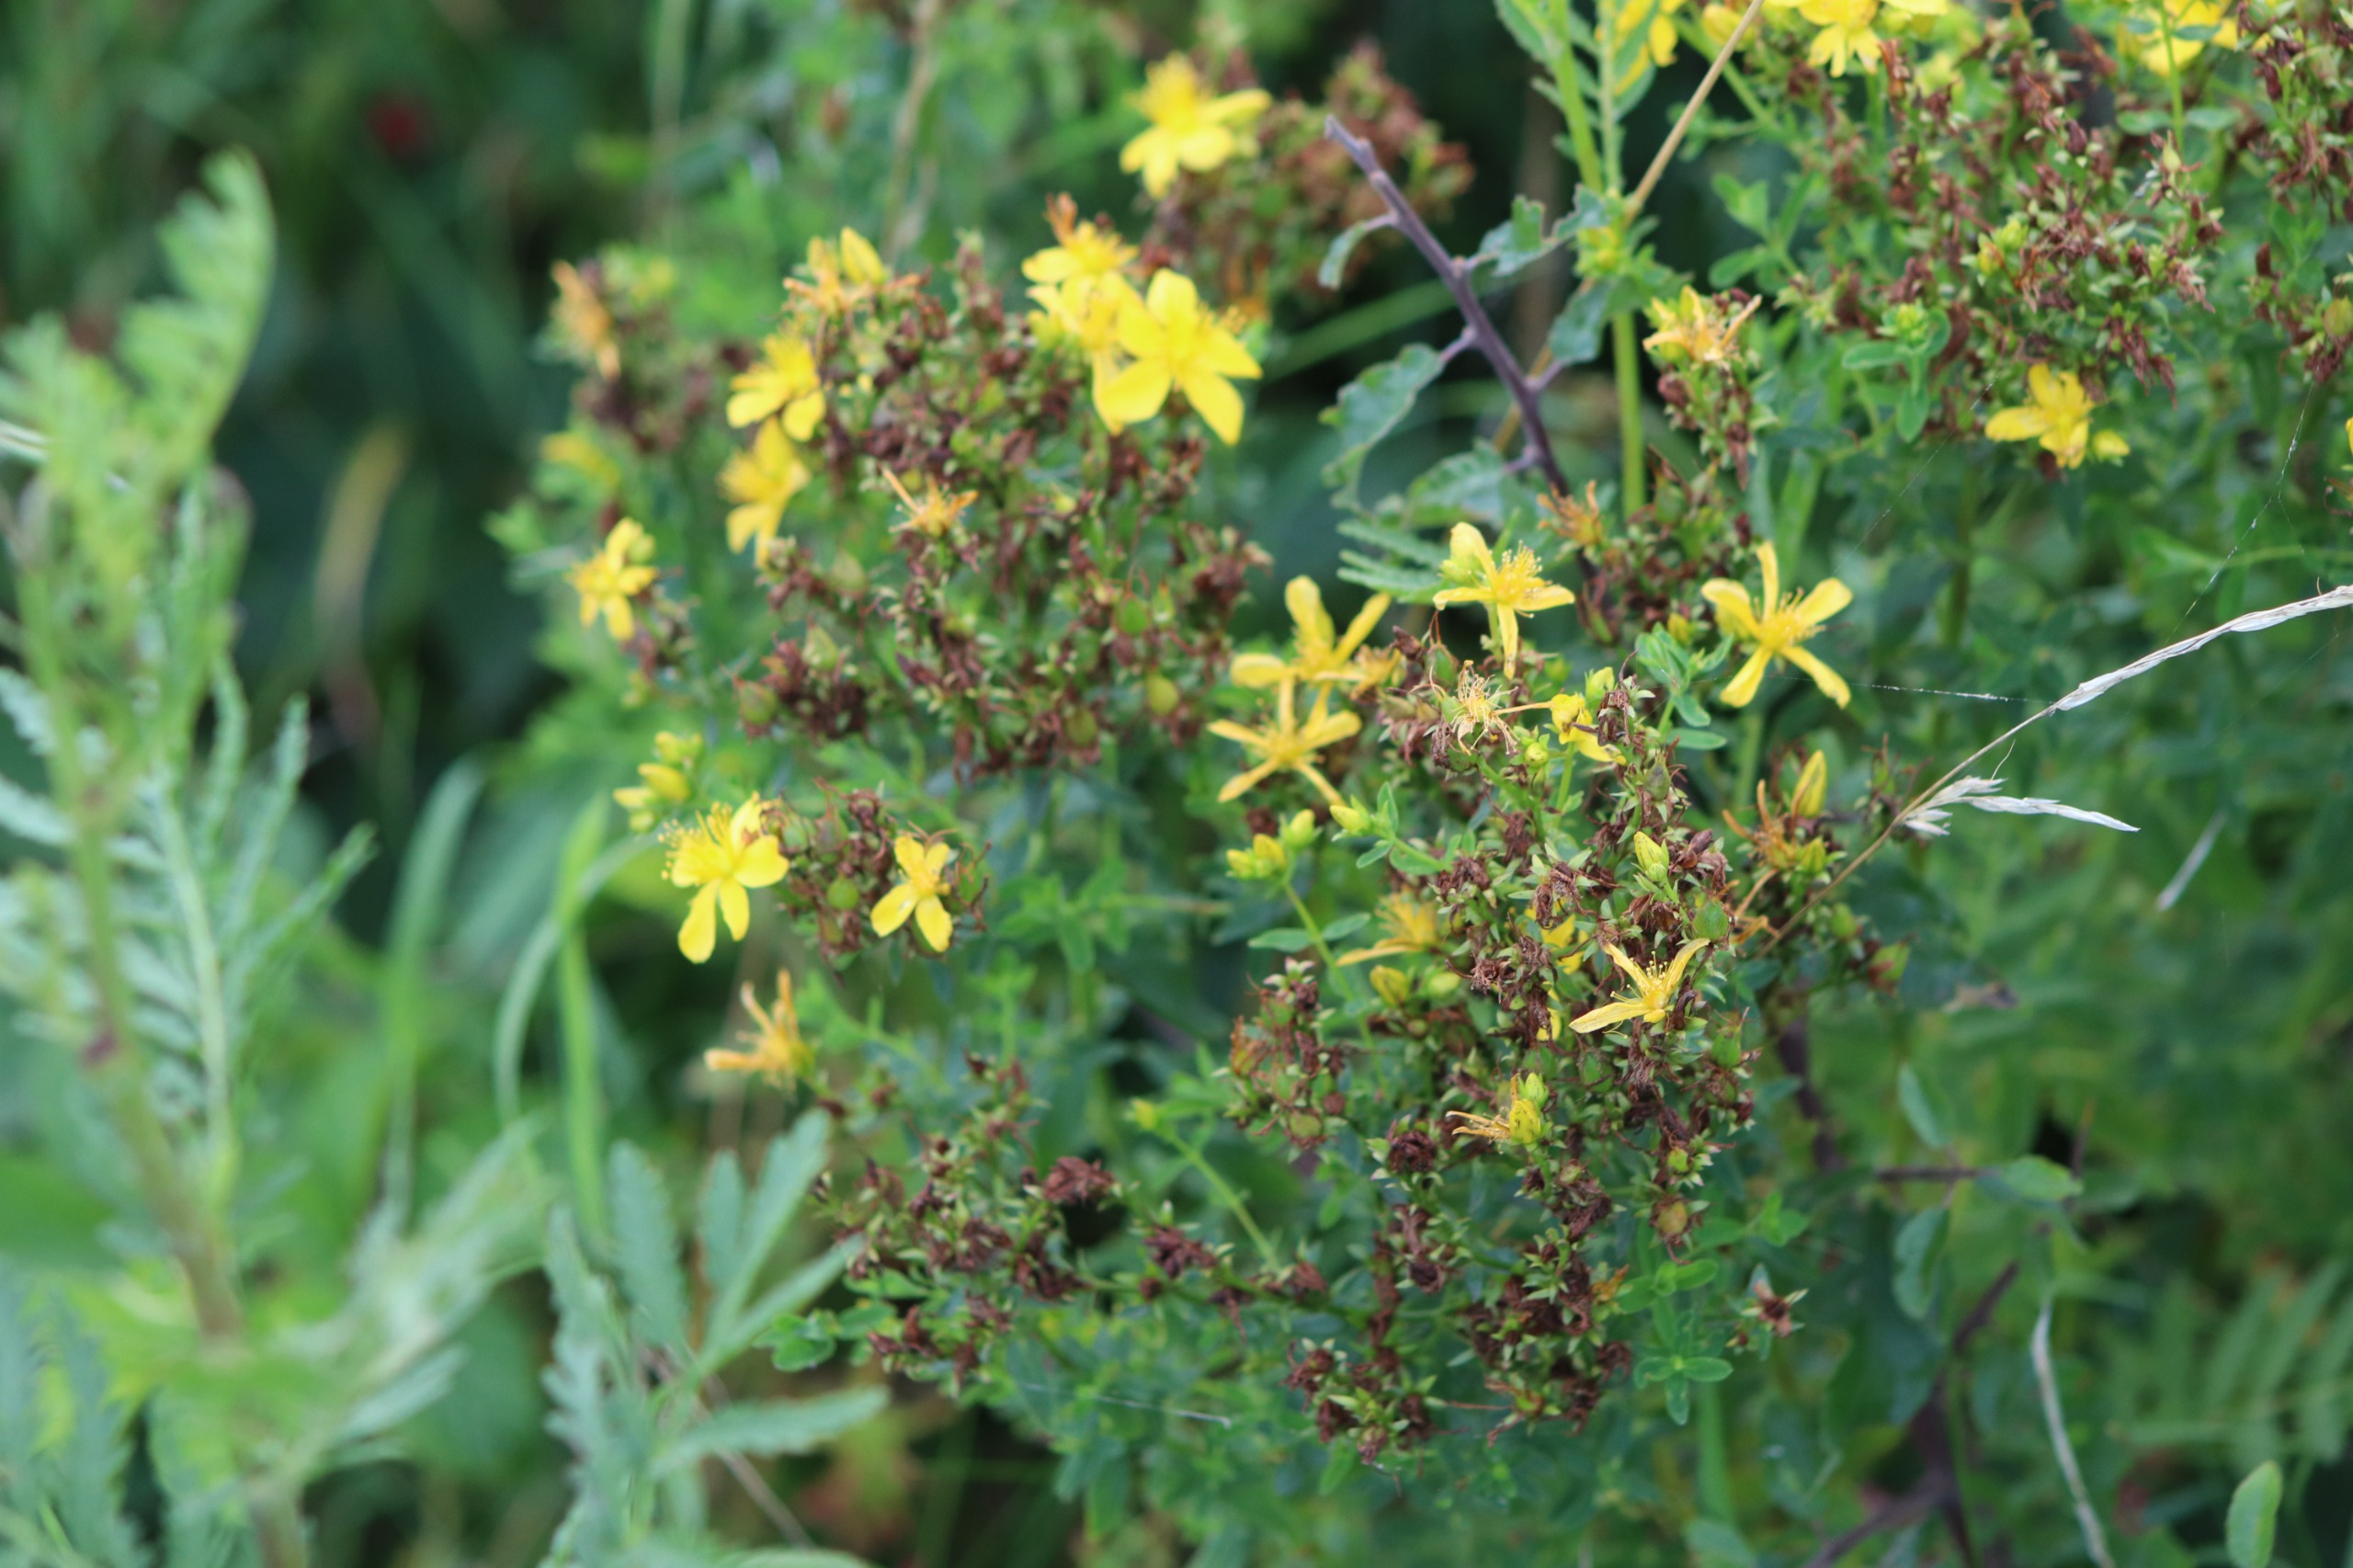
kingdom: Plantae
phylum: Tracheophyta
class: Magnoliopsida
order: Malpighiales
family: Hypericaceae
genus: Hypericum
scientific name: Hypericum perforatum
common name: Prikbladet perikon
